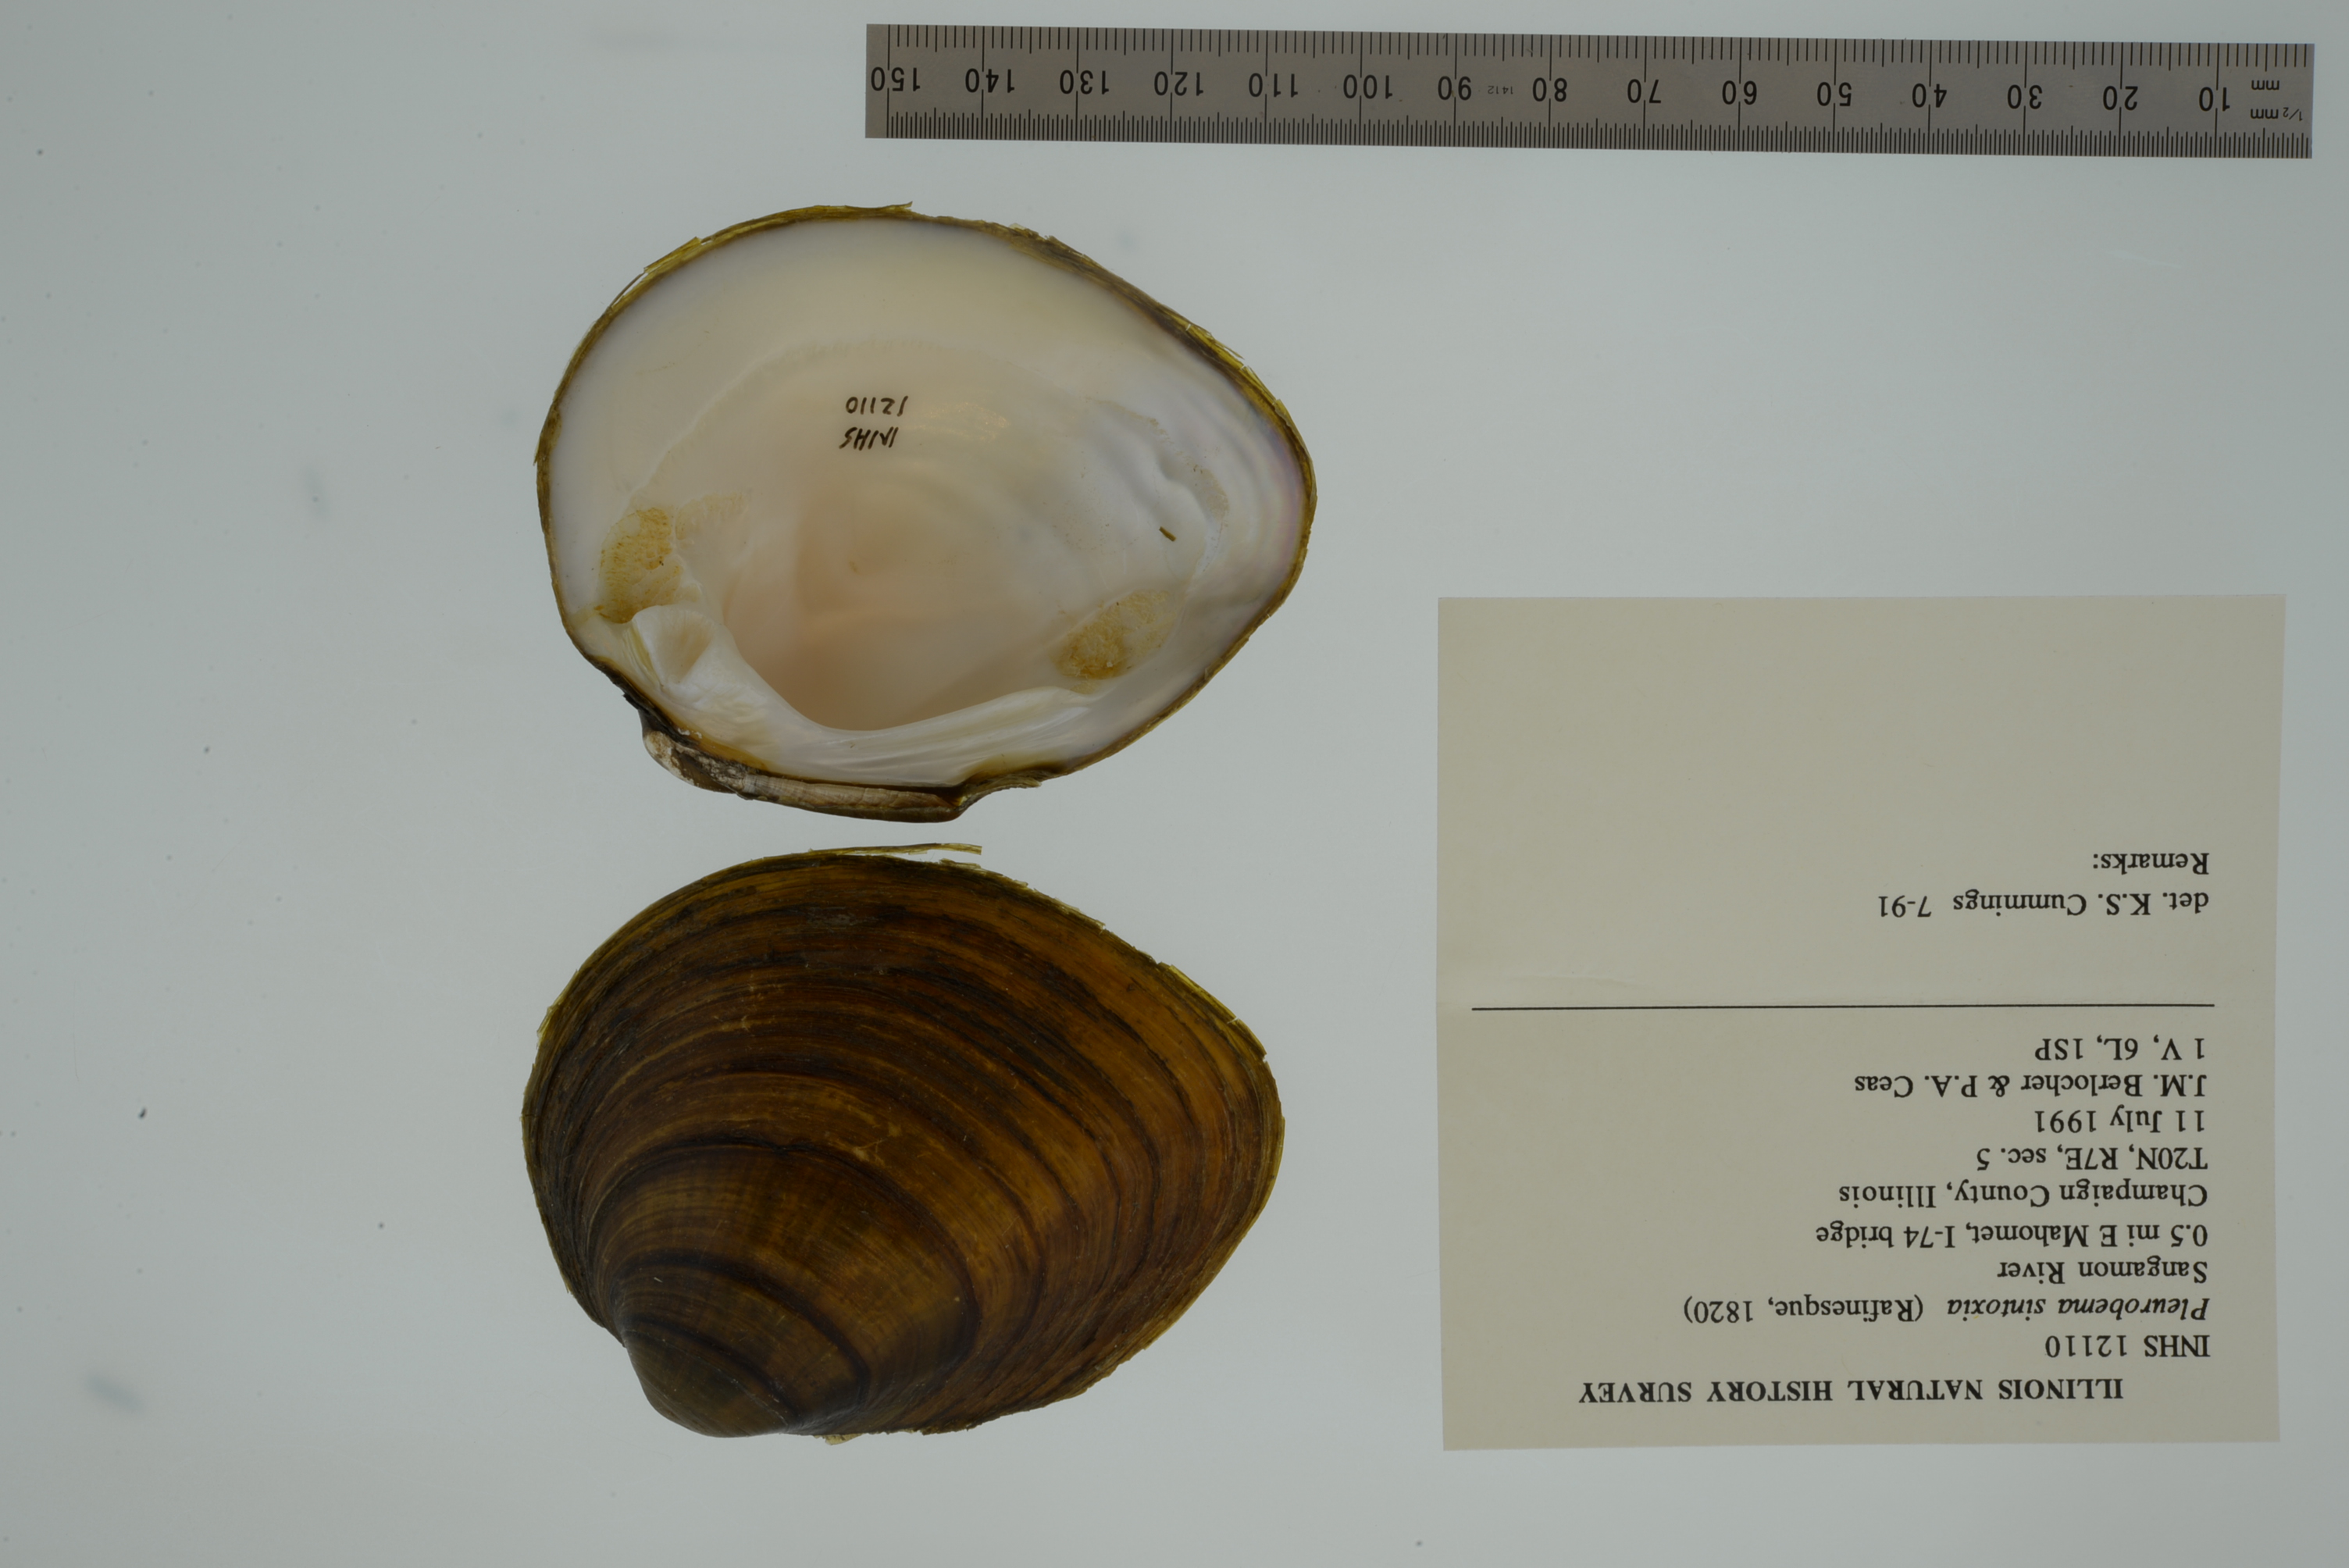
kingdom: Animalia
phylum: Mollusca
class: Bivalvia
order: Unionida
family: Unionidae
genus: Pleurobema
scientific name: Pleurobema sintoxia
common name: Round pigtoe
